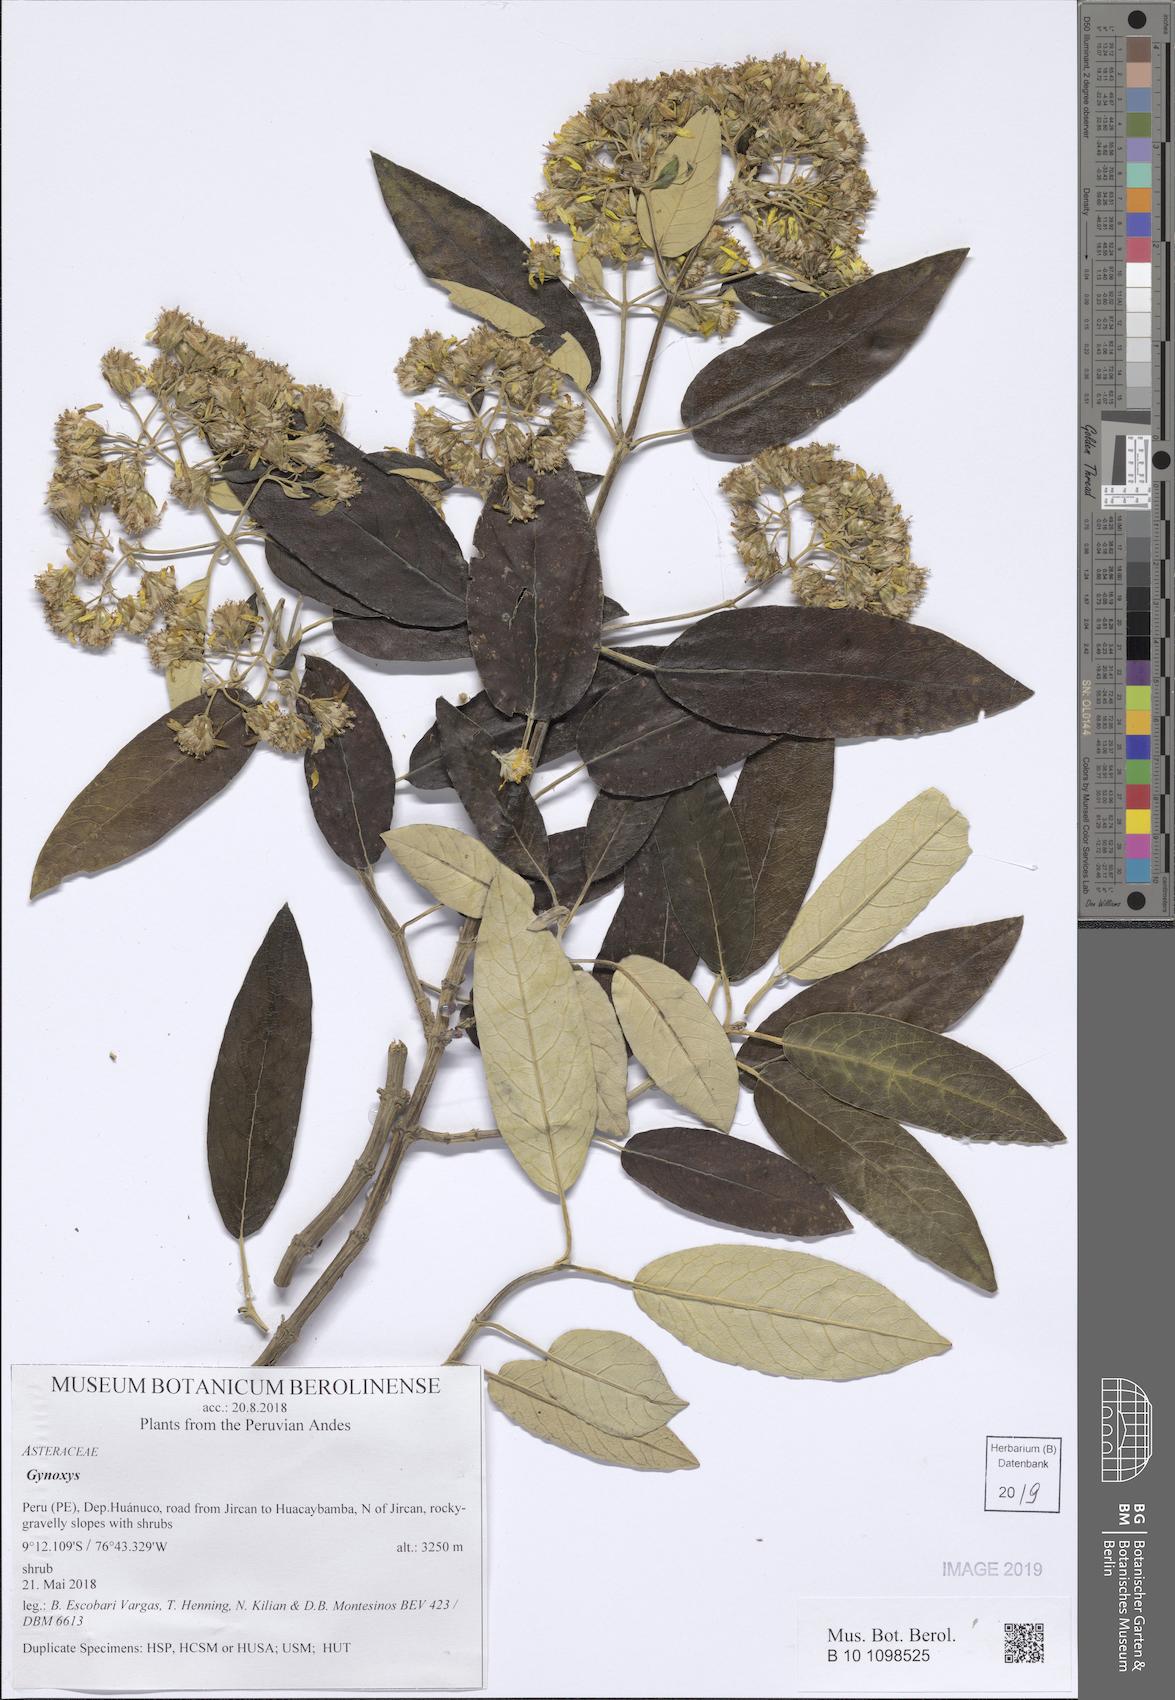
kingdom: Plantae
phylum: Tracheophyta
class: Magnoliopsida
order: Asterales
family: Asteraceae
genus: Gynoxys
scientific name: Gynoxys
